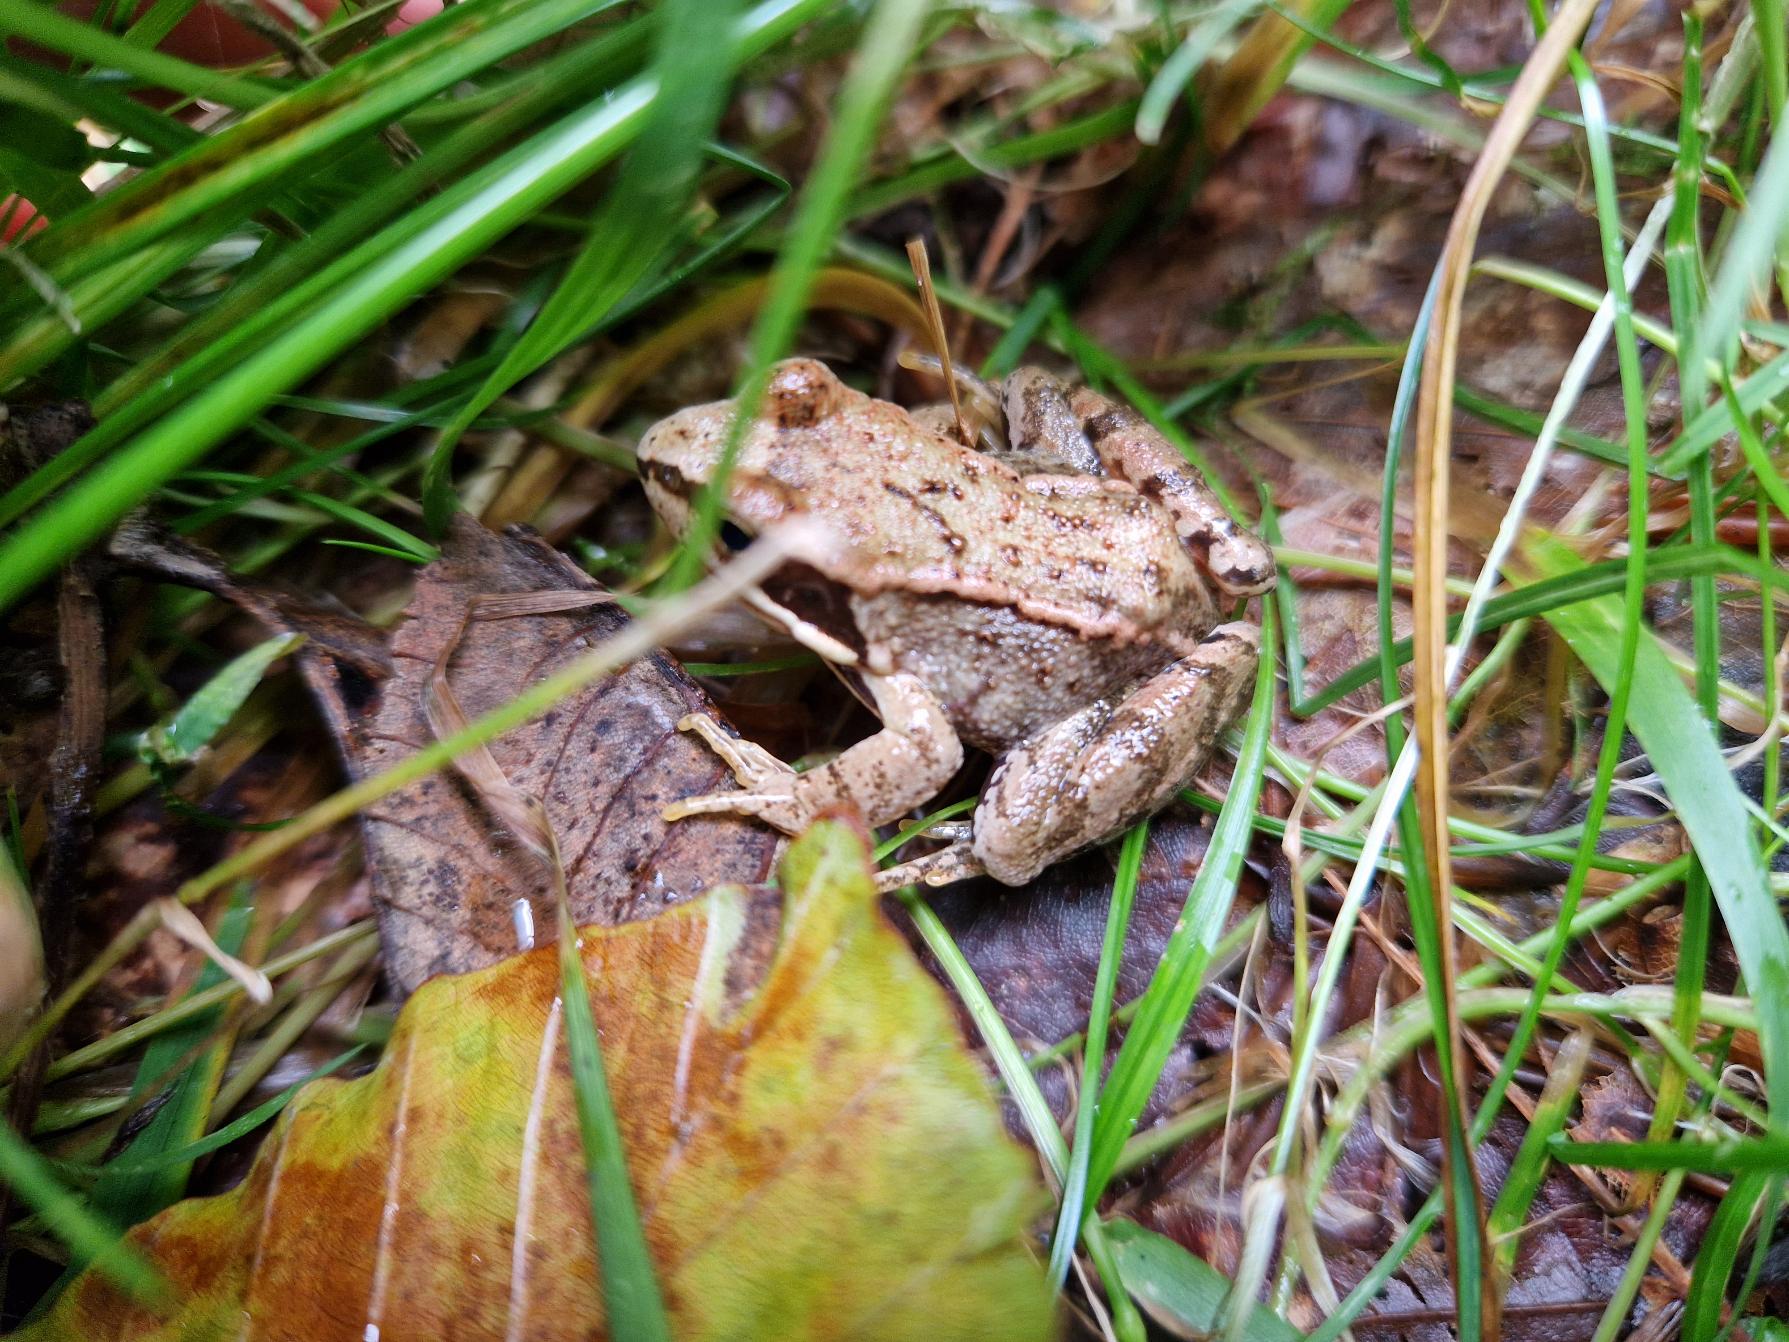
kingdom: Animalia
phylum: Chordata
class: Amphibia
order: Anura
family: Ranidae
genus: Rana
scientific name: Rana temporaria
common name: Butsnudet frø
